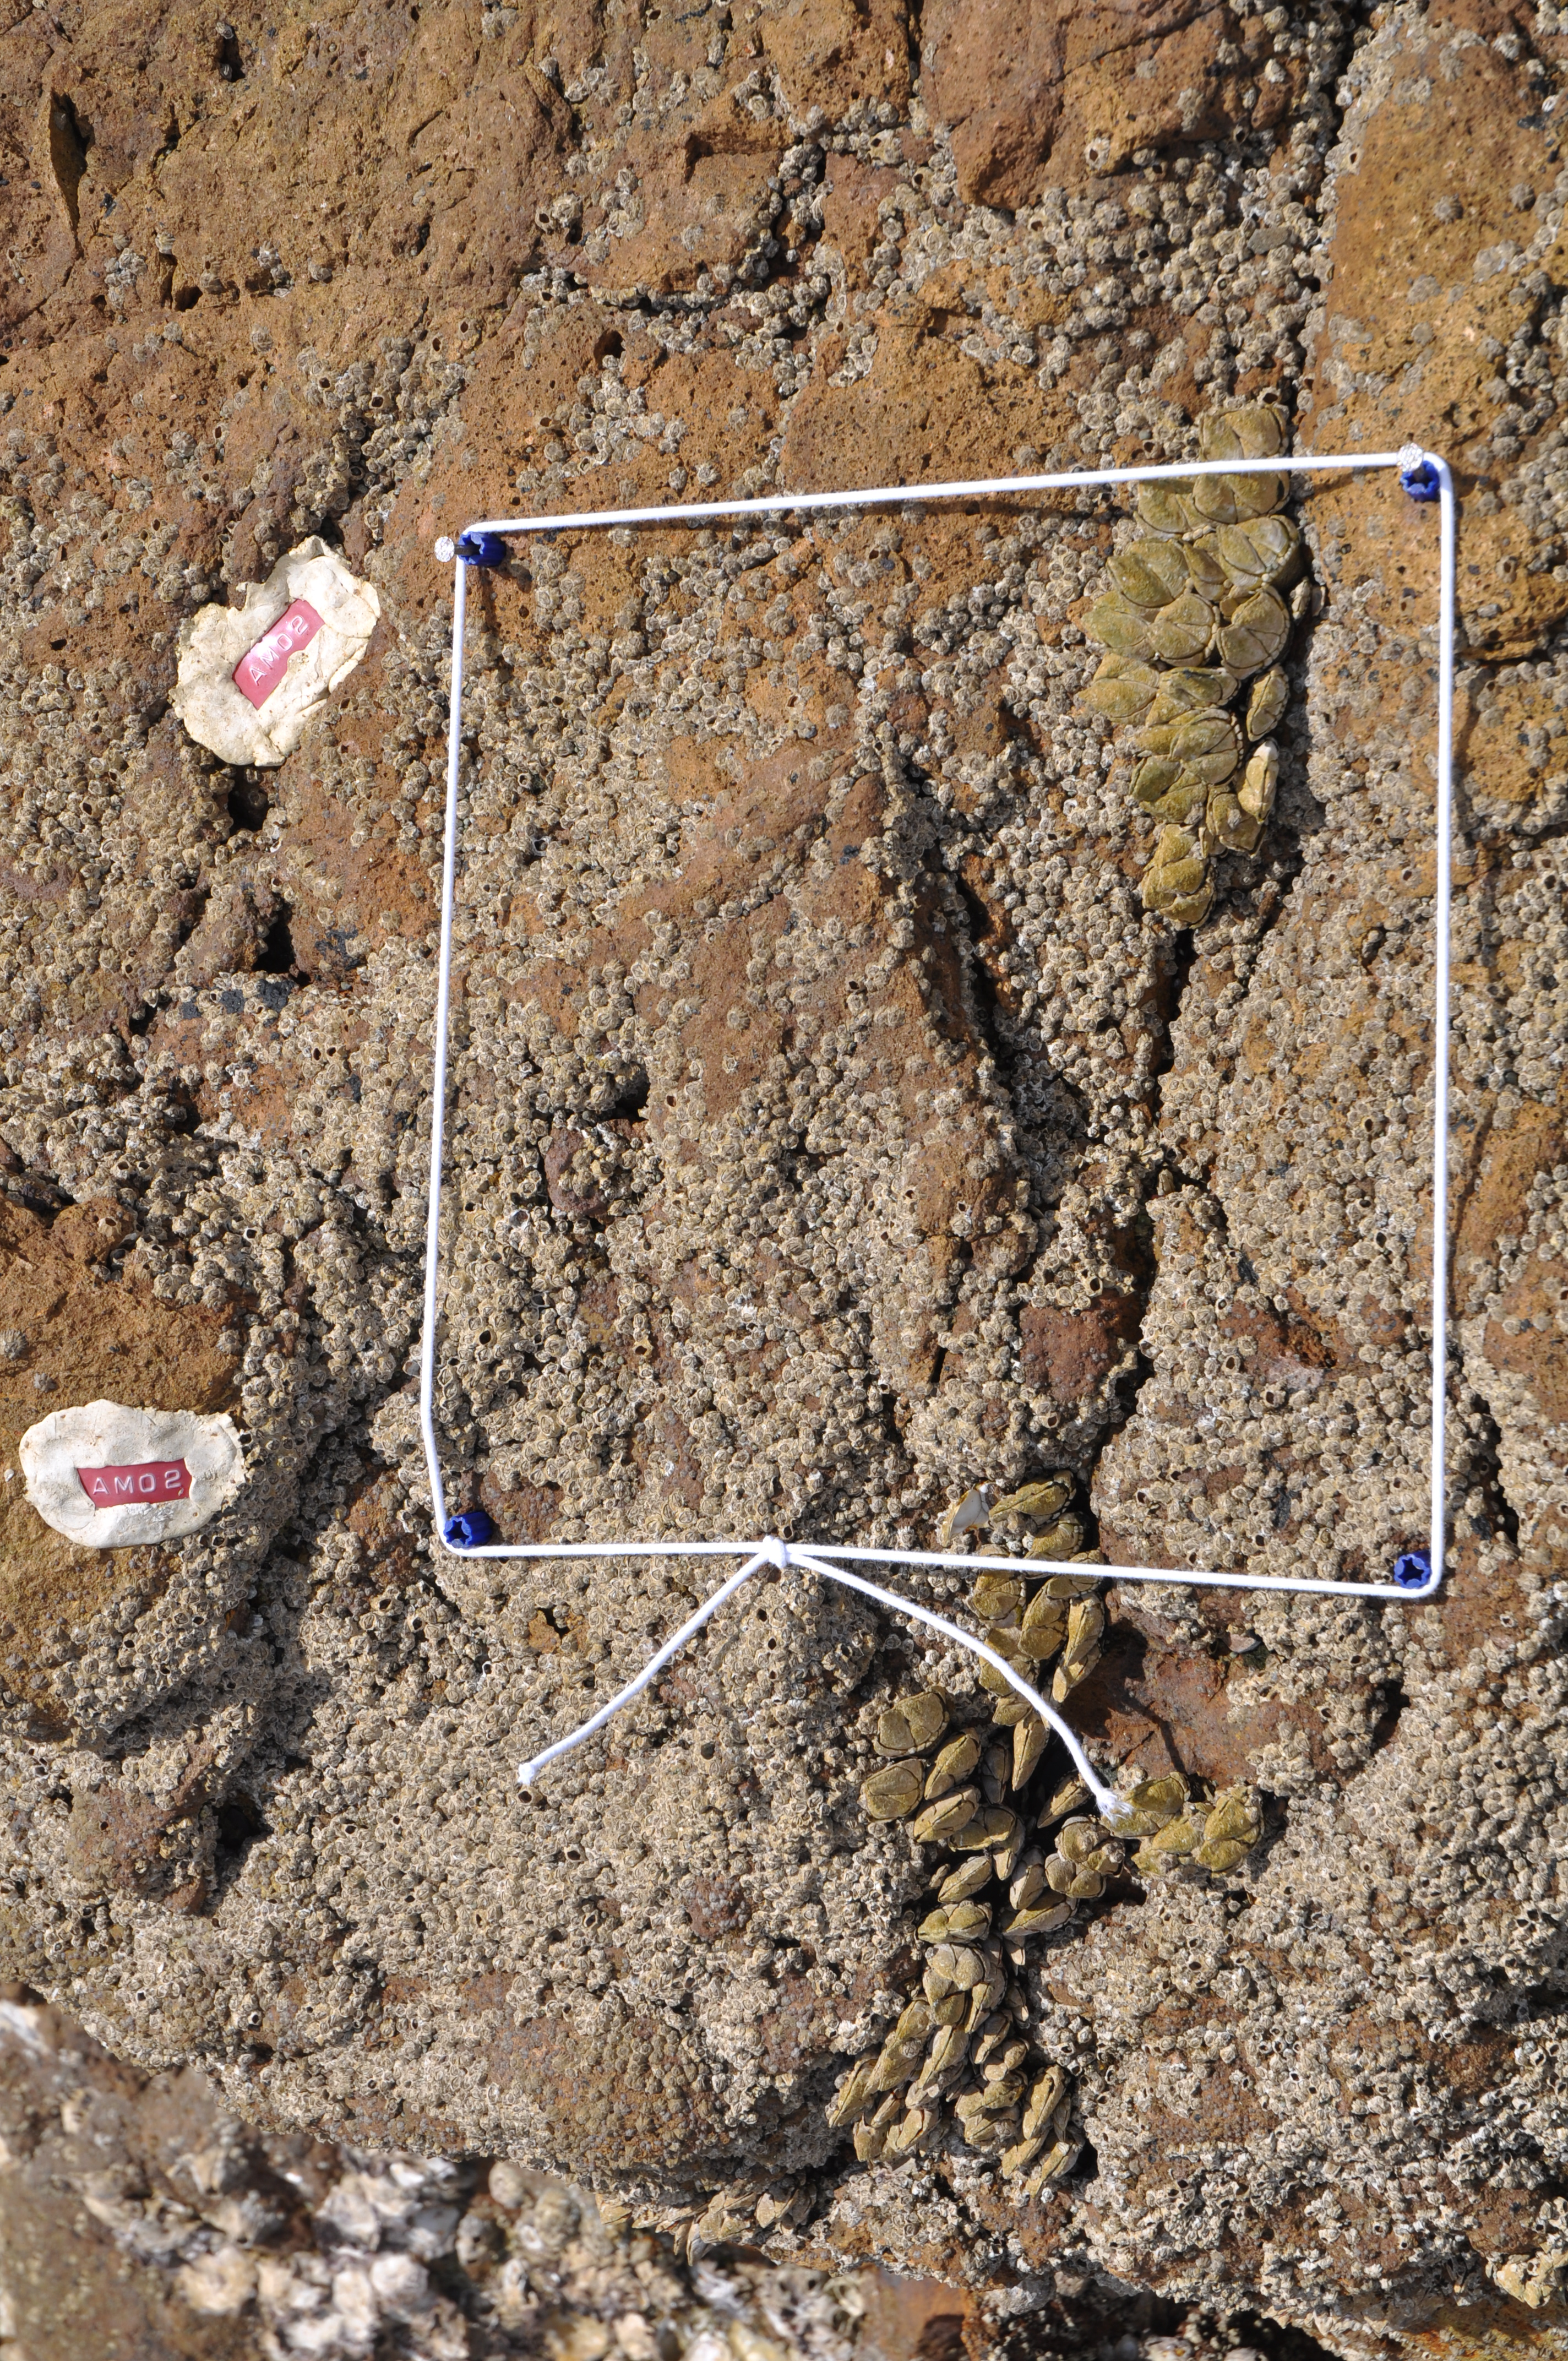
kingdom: Animalia
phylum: Arthropoda
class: Maxillopoda
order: Sessilia
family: Chthamalidae
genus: Chthamalus
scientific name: Chthamalus challengeri
